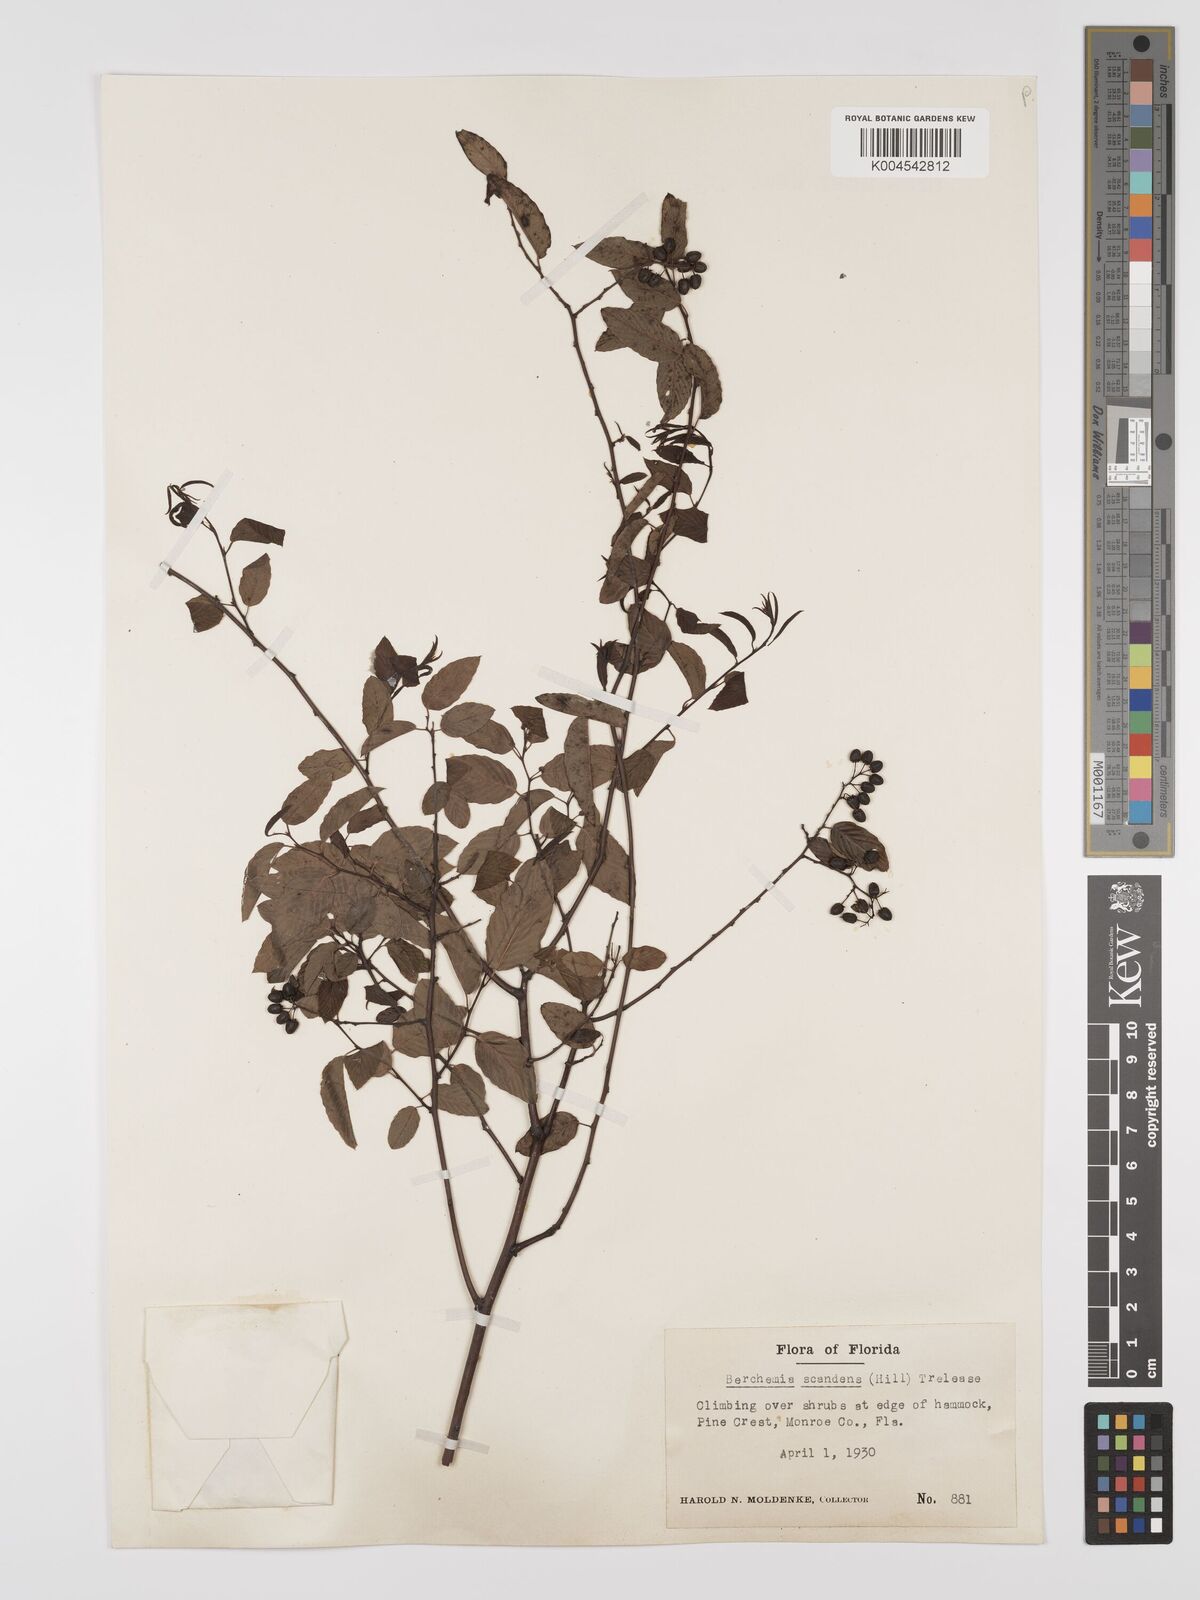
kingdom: Plantae
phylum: Tracheophyta
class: Magnoliopsida
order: Rosales
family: Rhamnaceae
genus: Berchemia
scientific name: Berchemia scandens
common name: Supplejack
